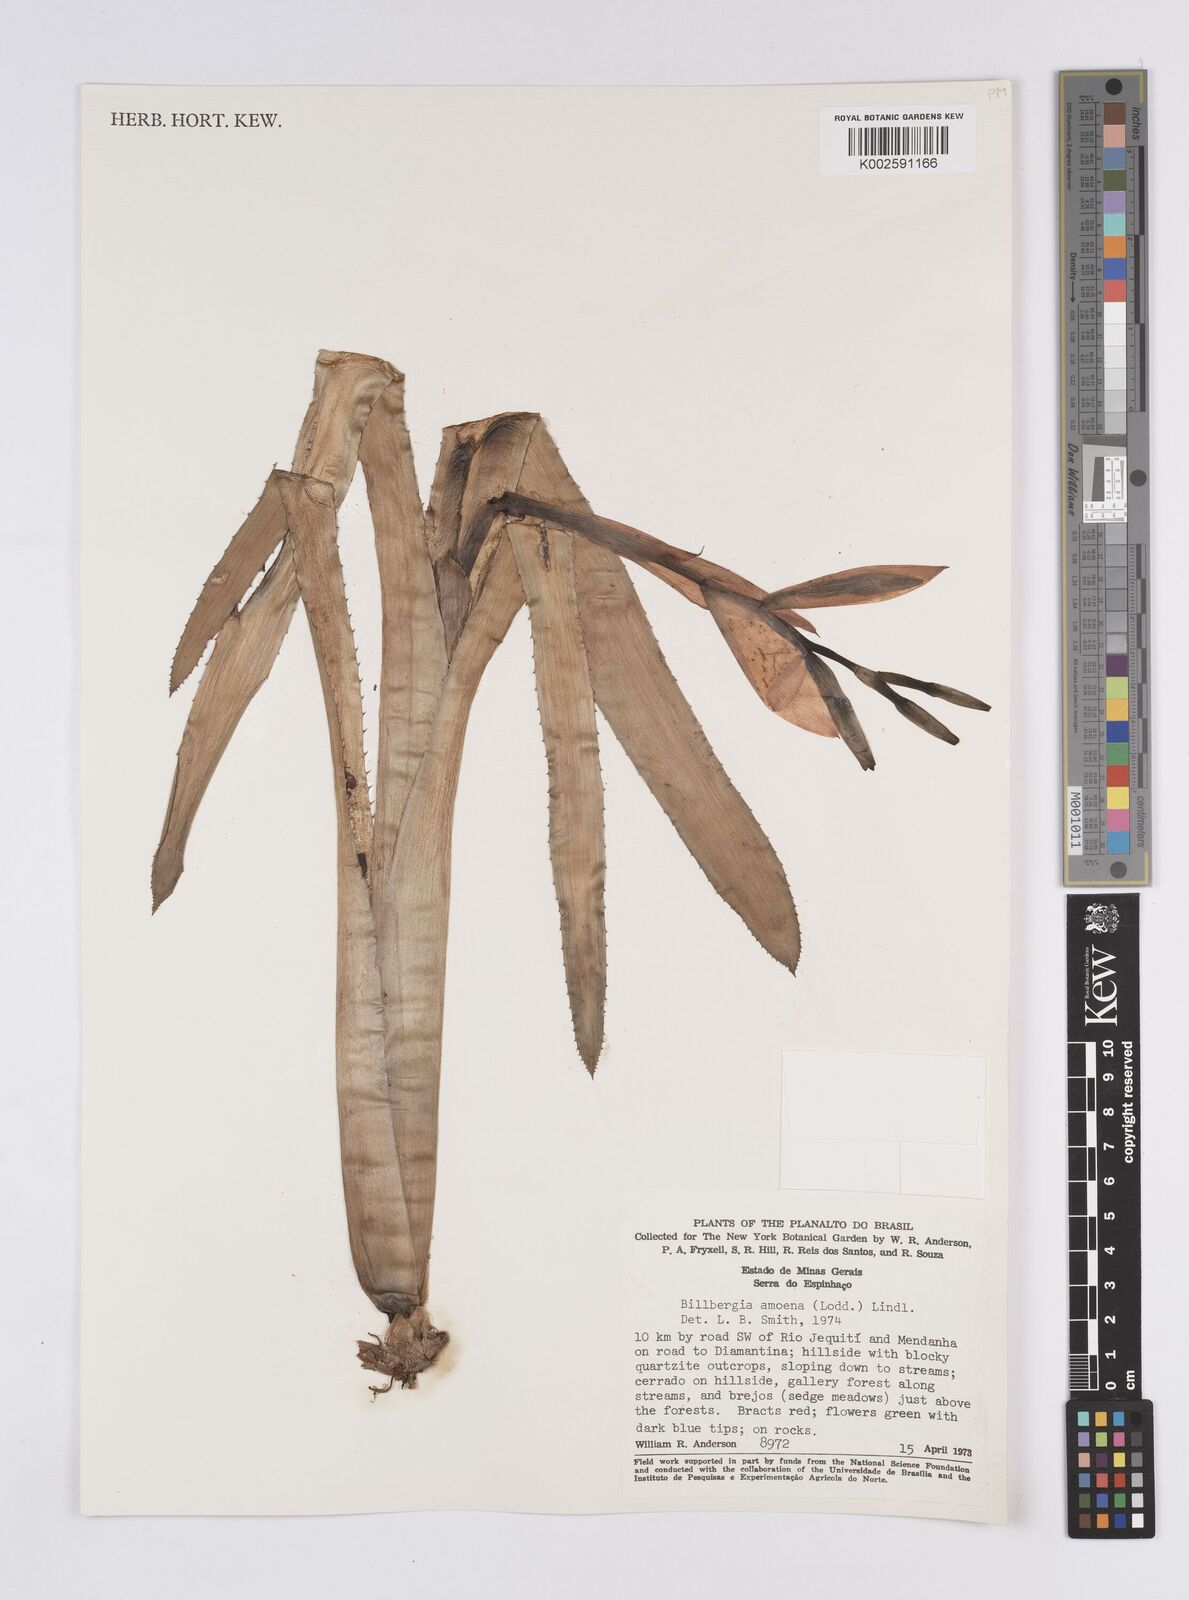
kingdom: Plantae
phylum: Tracheophyta
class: Liliopsida
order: Poales
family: Bromeliaceae
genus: Billbergia
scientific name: Billbergia amoena
